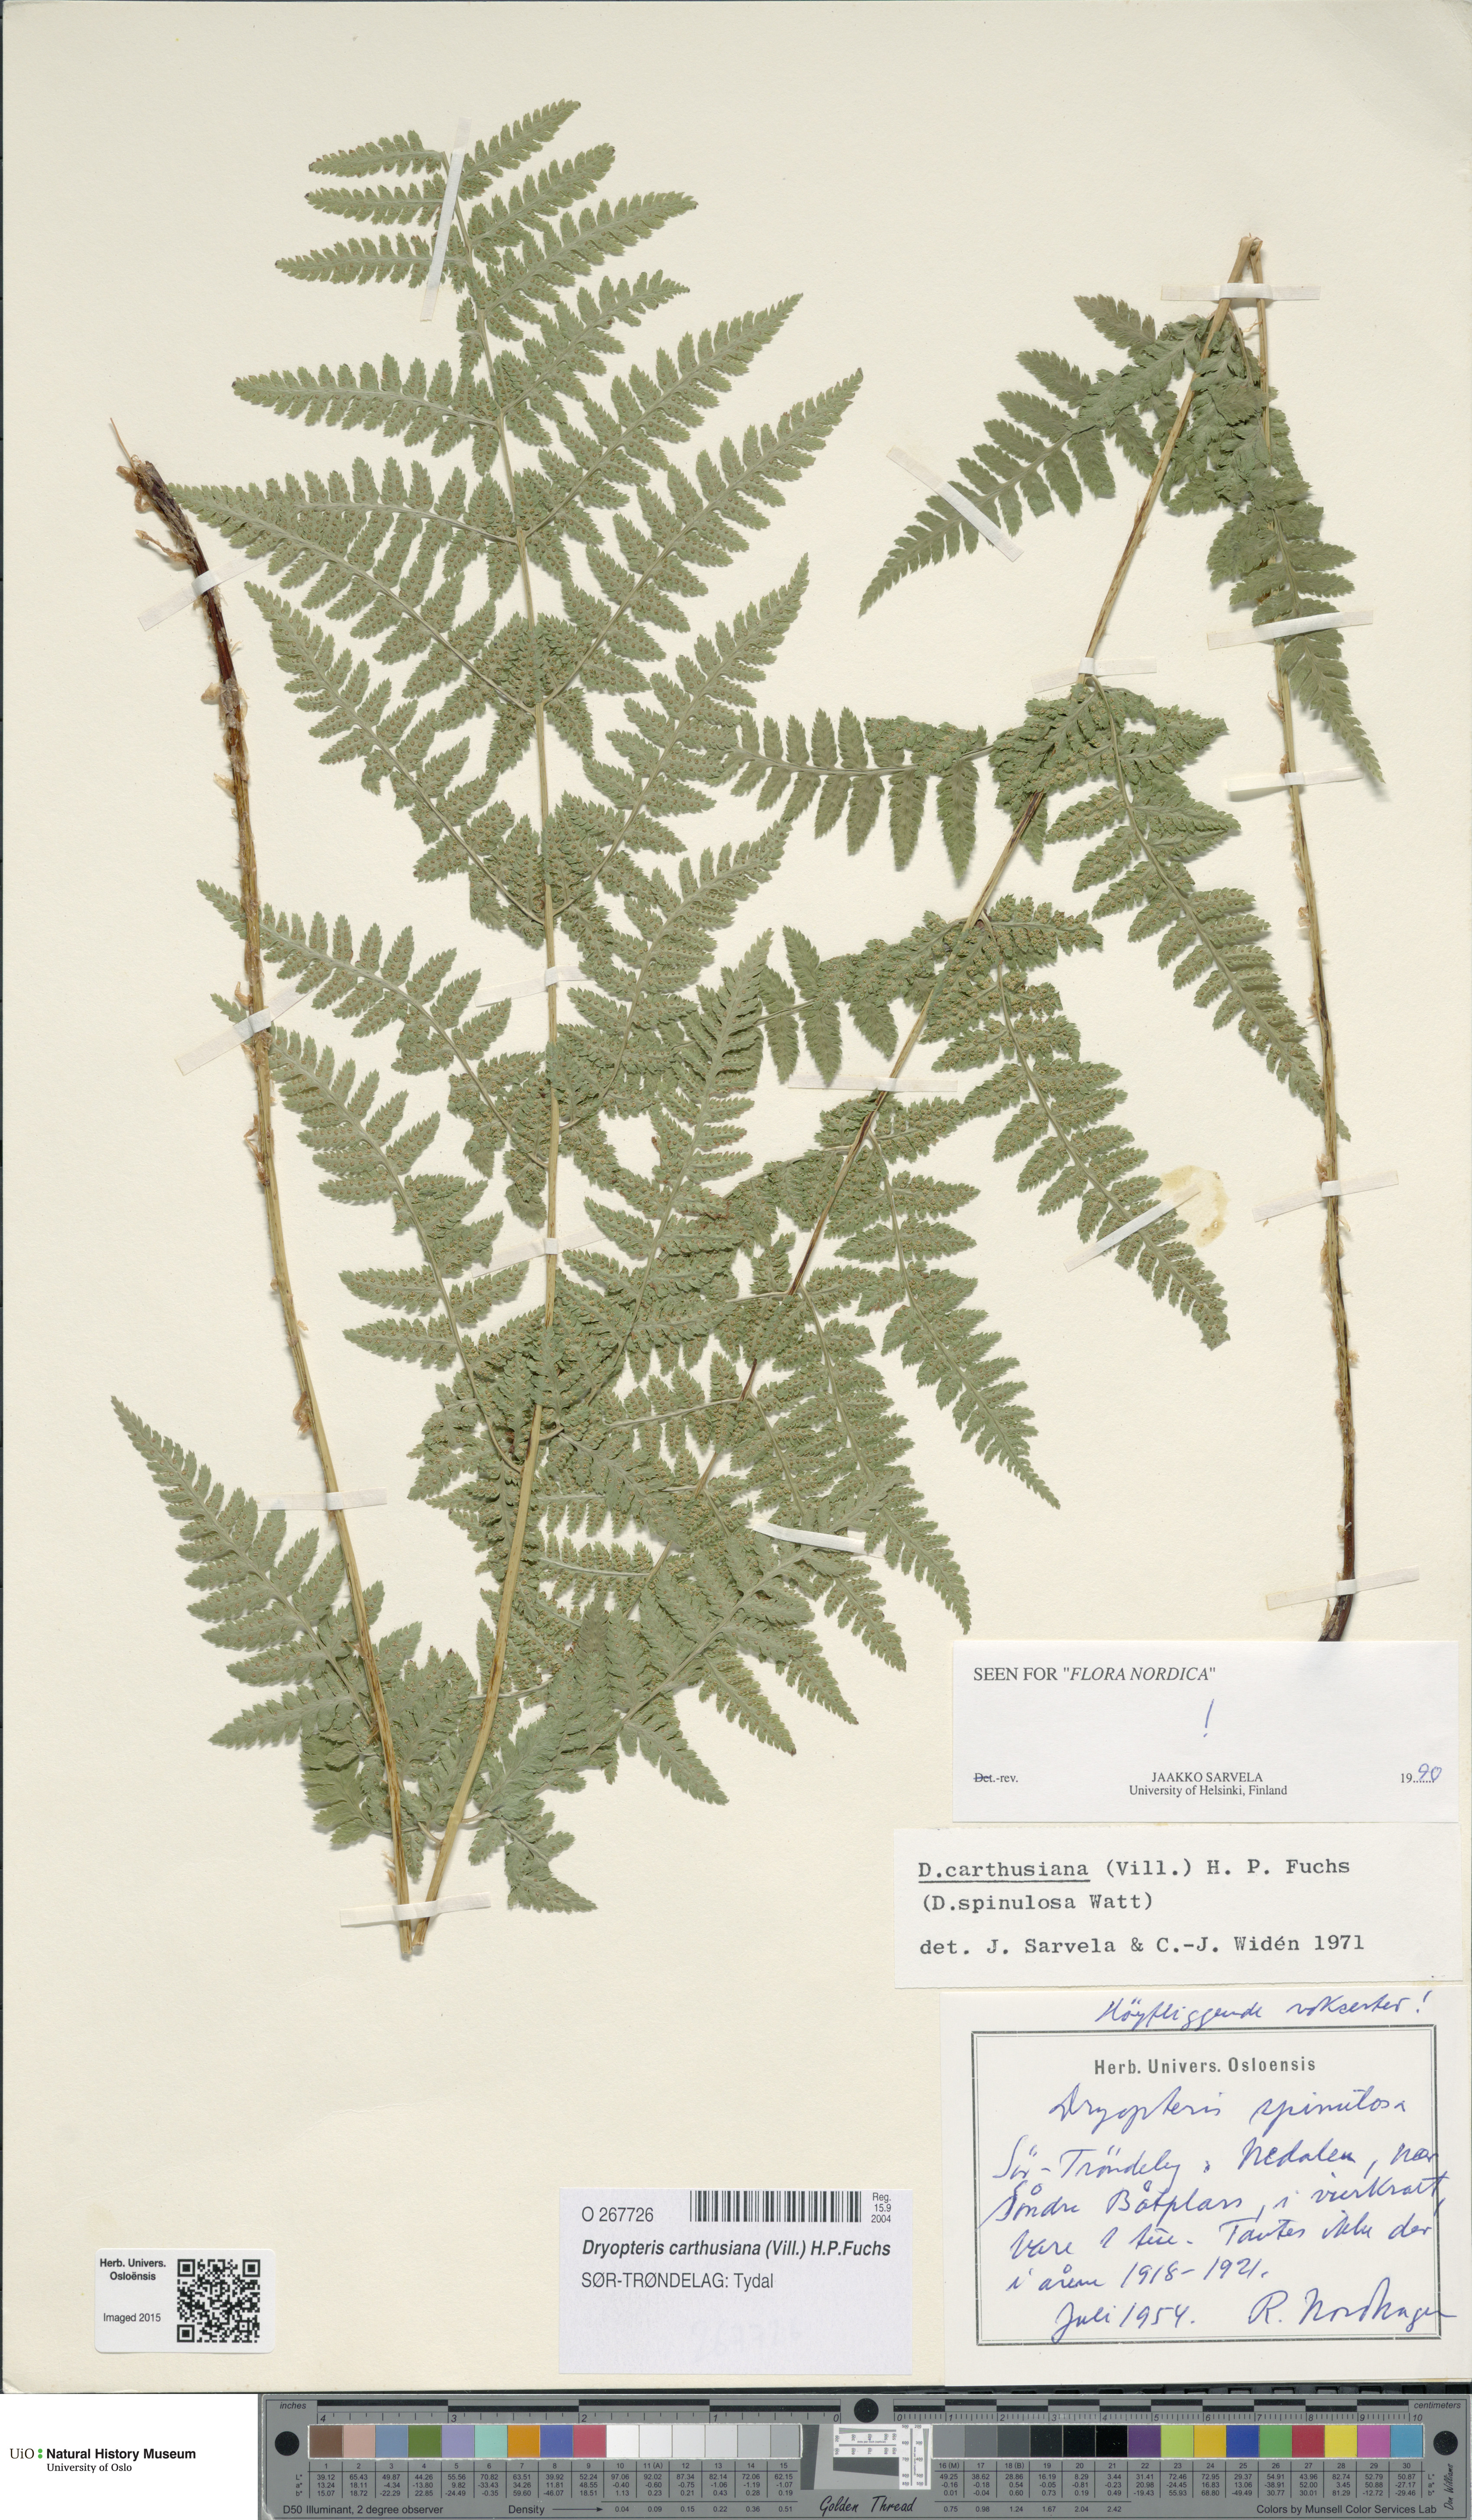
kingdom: Plantae
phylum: Tracheophyta
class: Polypodiopsida
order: Polypodiales
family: Dryopteridaceae
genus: Dryopteris
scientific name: Dryopteris carthusiana
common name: Narrow buckler-fern
